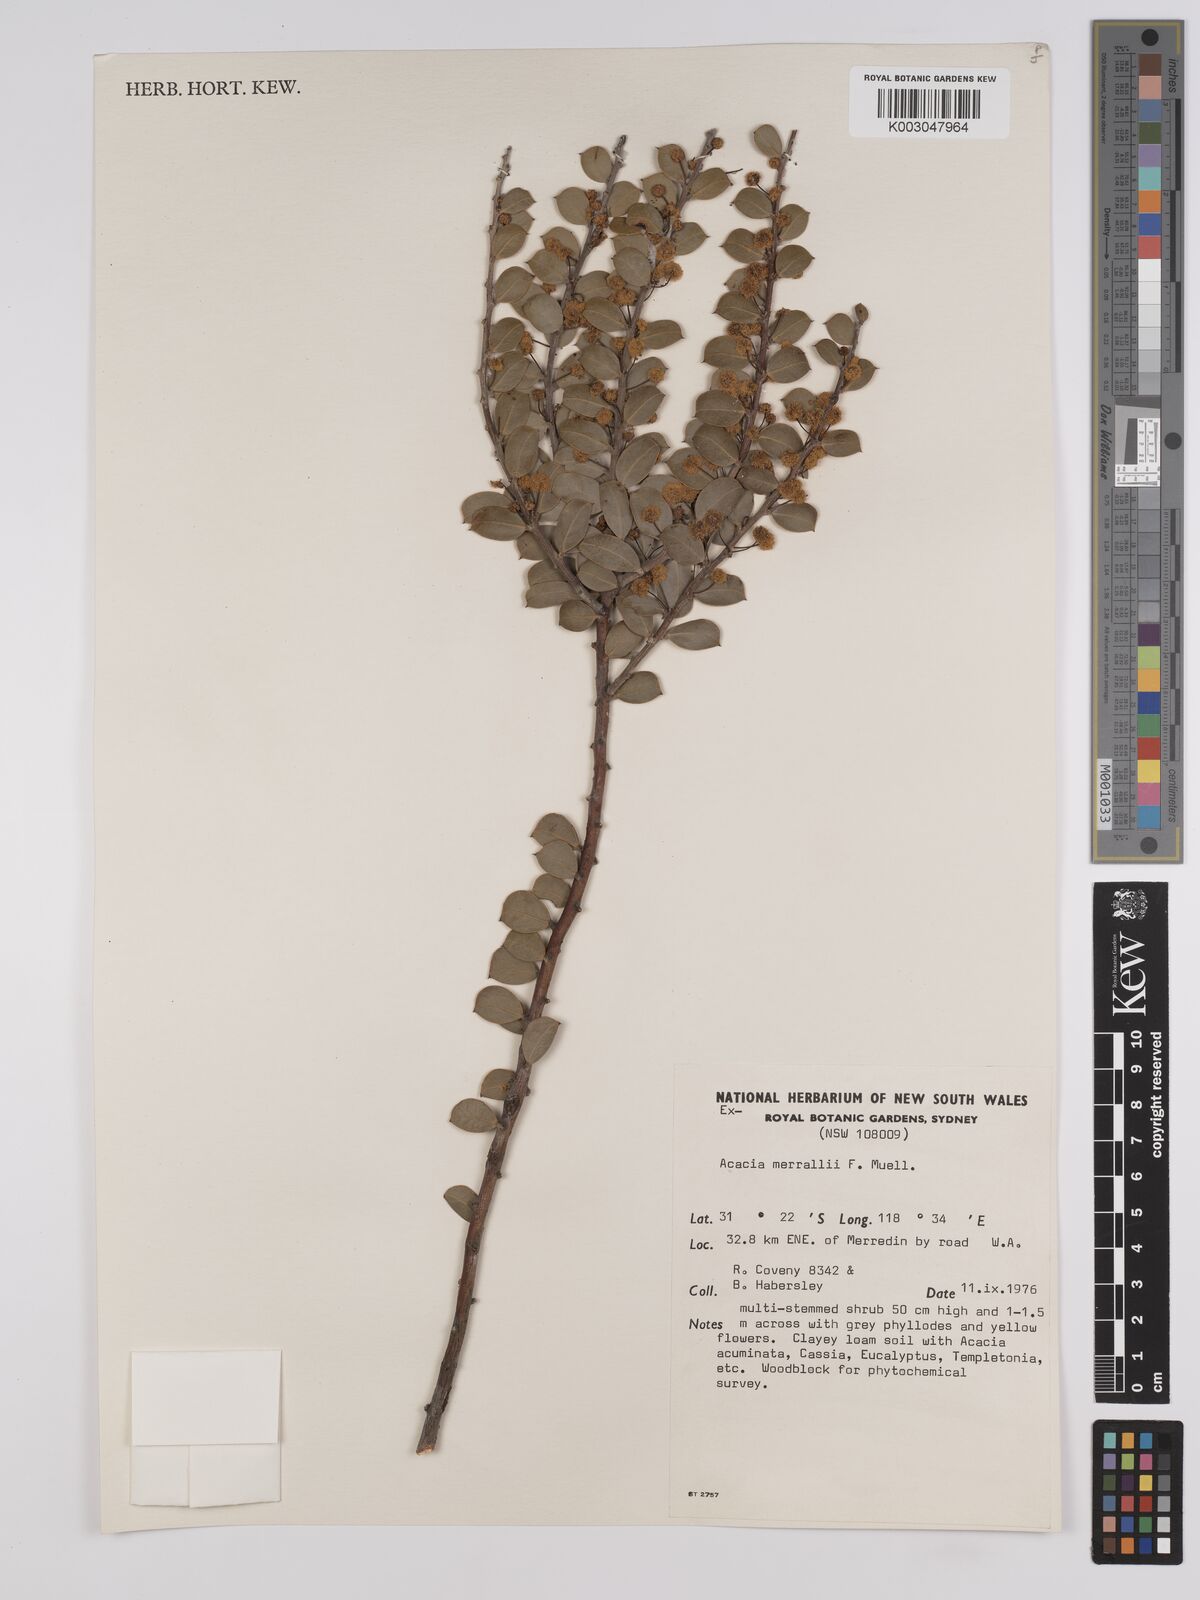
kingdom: Plantae
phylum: Tracheophyta
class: Magnoliopsida
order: Fabales
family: Fabaceae
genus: Acacia
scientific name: Acacia merrallii
